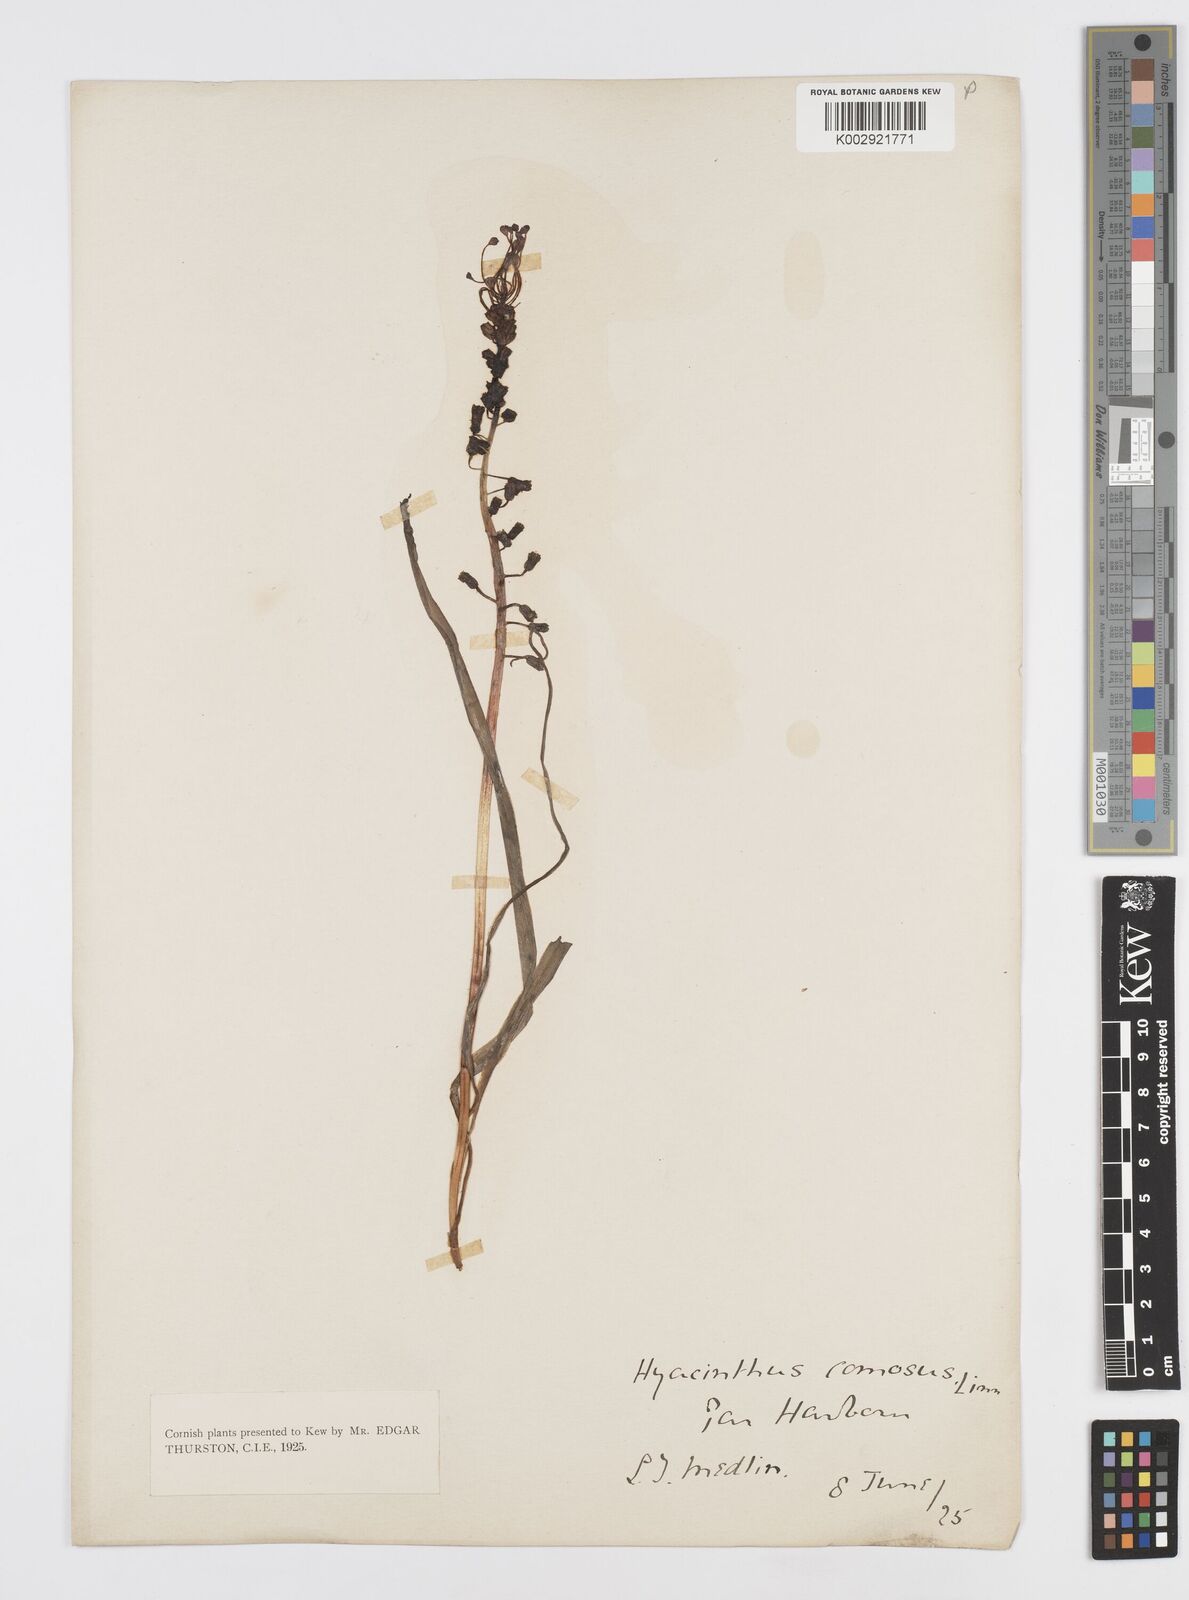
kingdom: Plantae
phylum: Tracheophyta
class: Liliopsida
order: Asparagales
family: Asparagaceae
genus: Muscari
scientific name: Muscari comosum
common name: Tassel hyacinth
